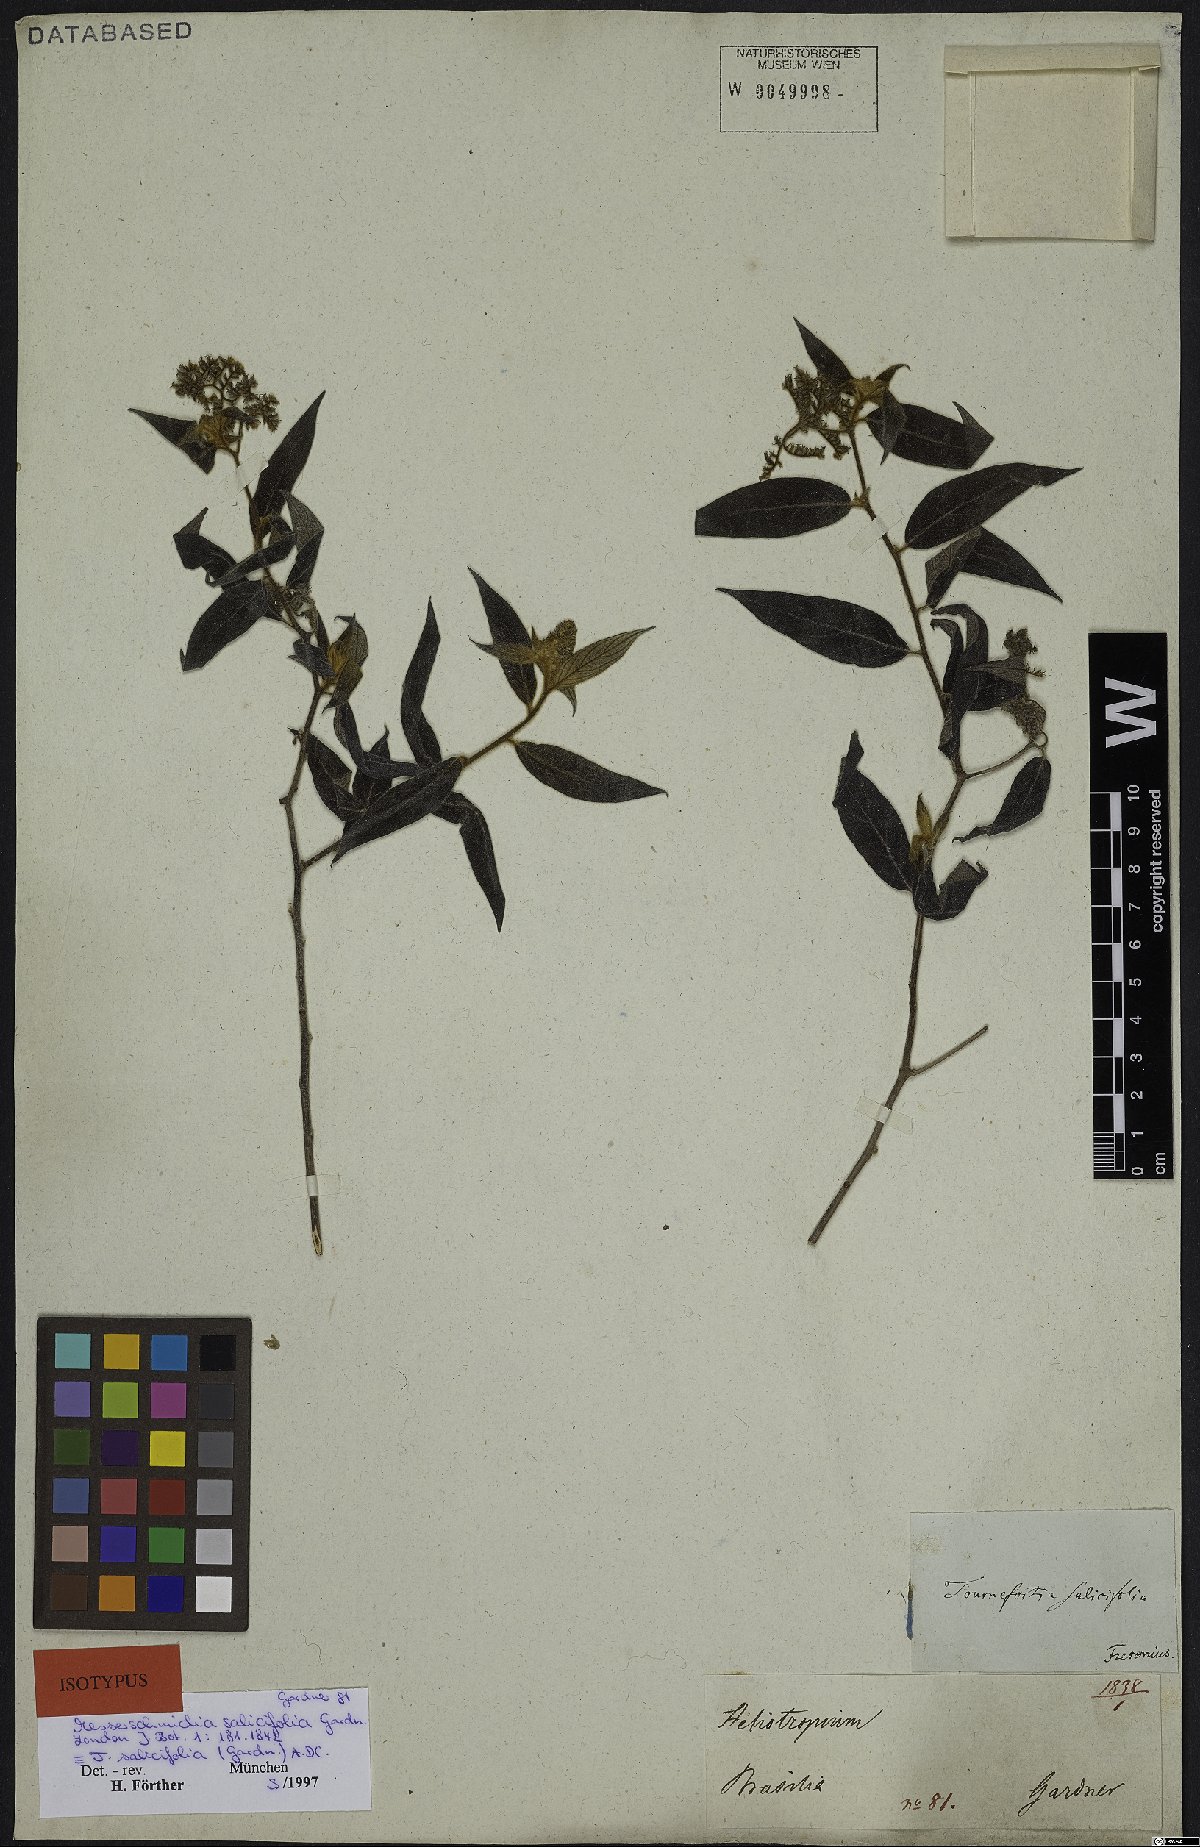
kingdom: Plantae
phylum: Tracheophyta
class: Magnoliopsida
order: Boraginales
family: Heliotropiaceae
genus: Myriopus
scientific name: Myriopus salicifolius
